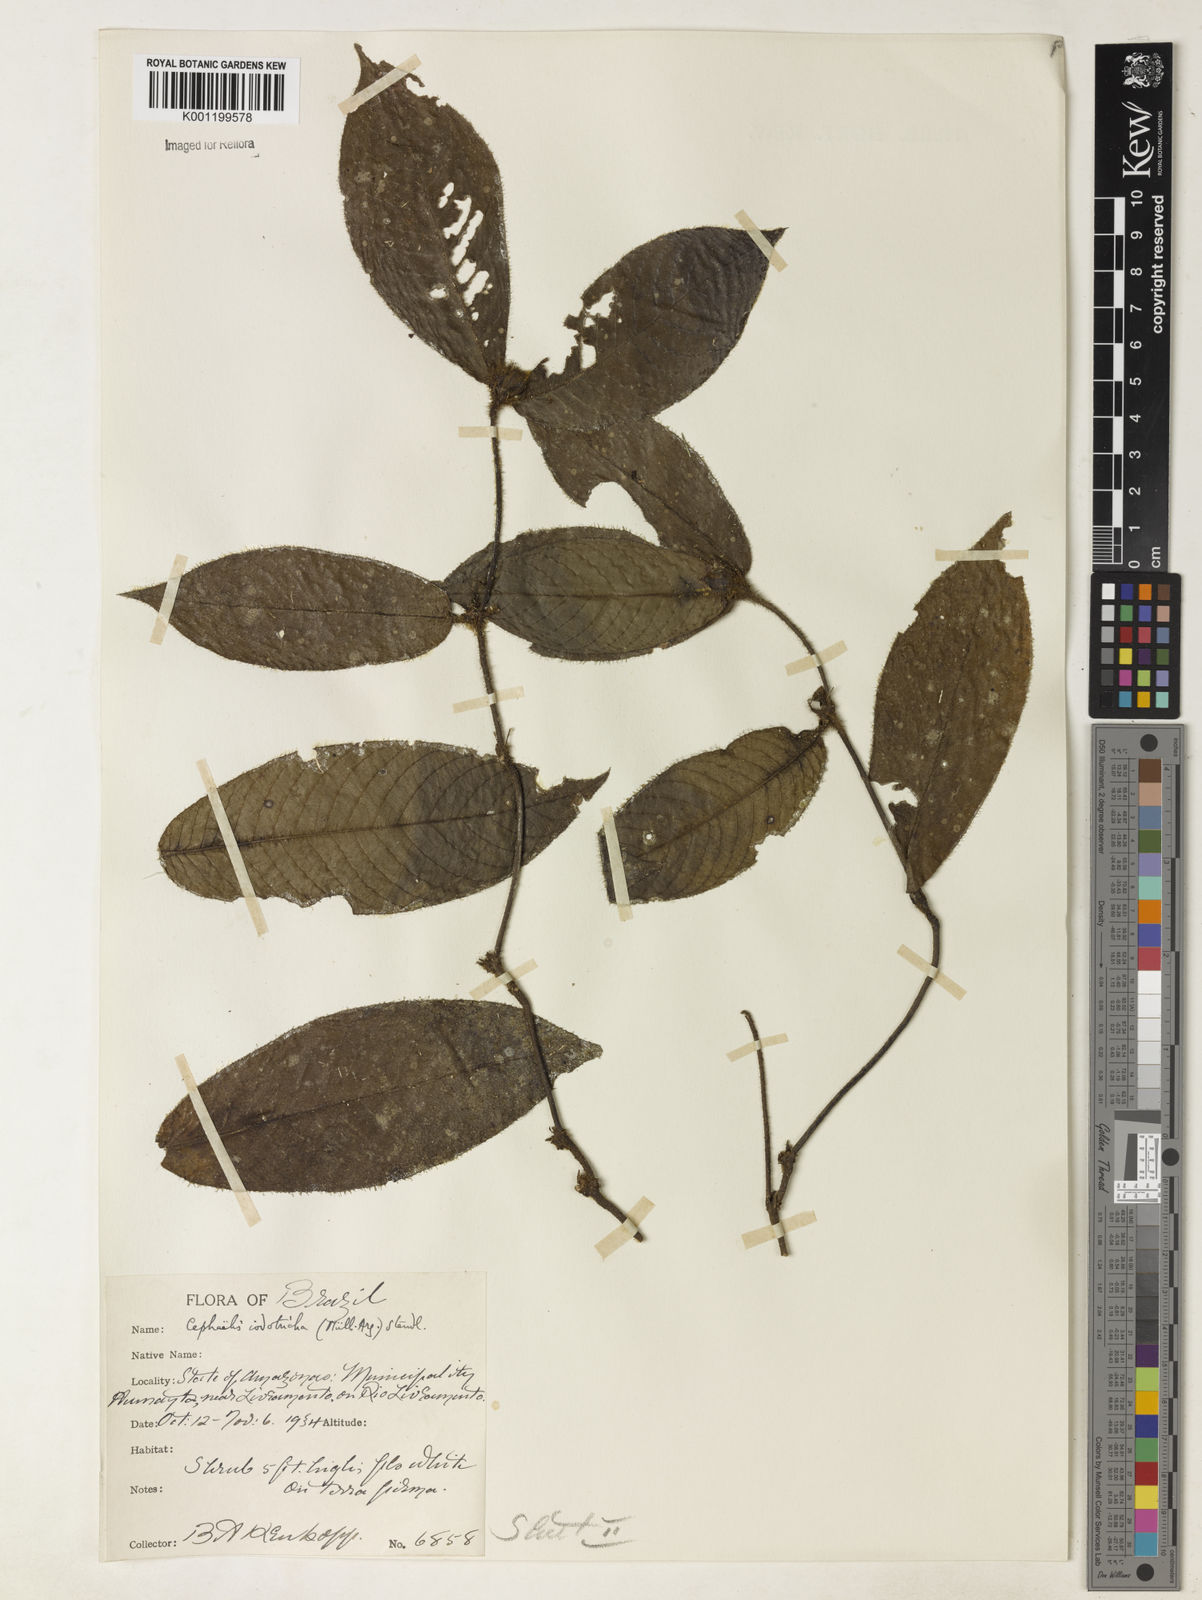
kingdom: Plantae
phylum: Tracheophyta
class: Magnoliopsida
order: Gentianales
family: Rubiaceae
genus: Psychotria
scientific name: Psychotria
